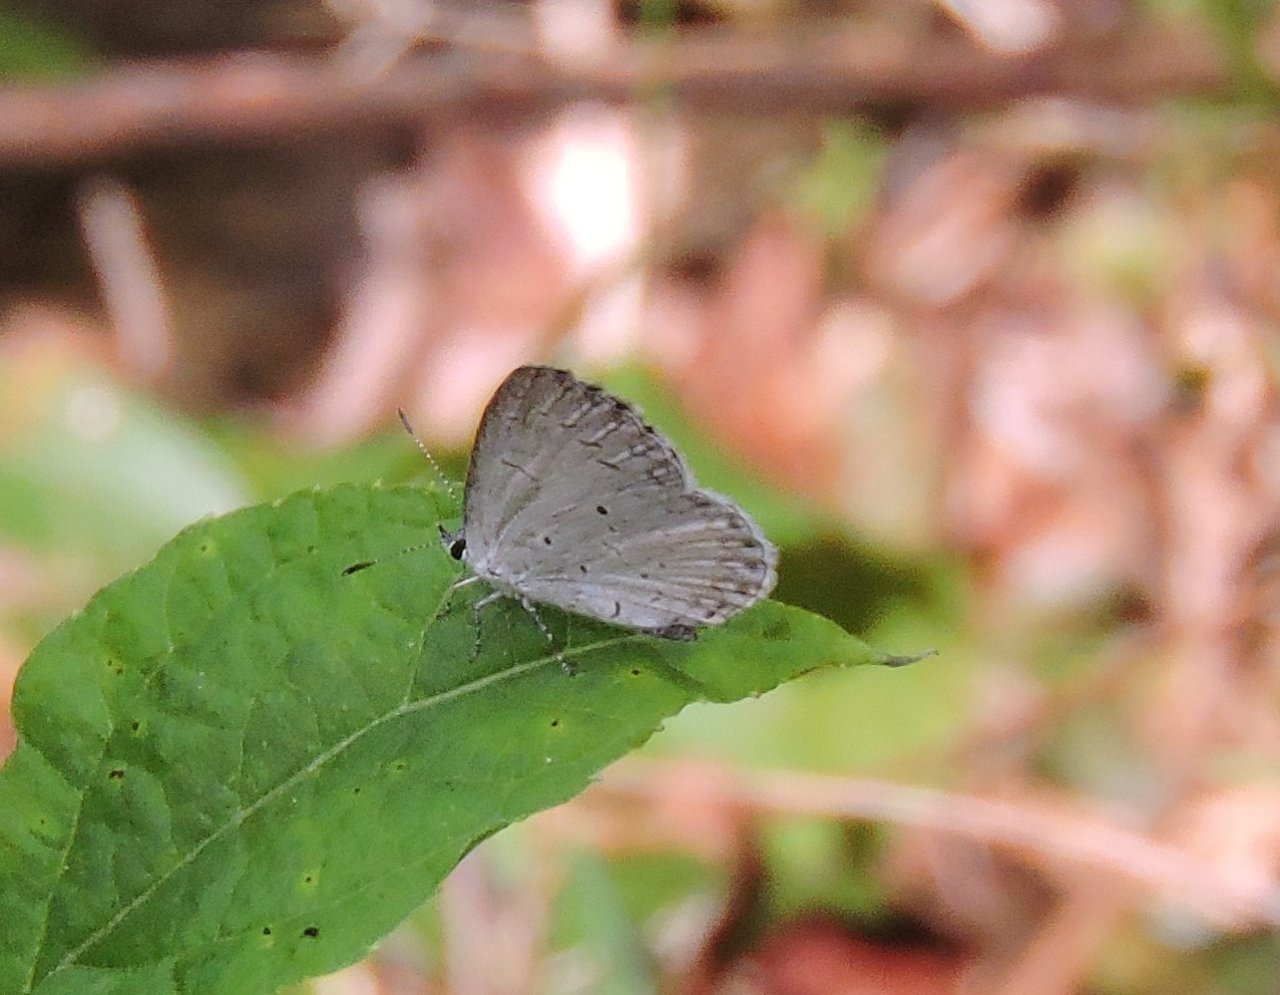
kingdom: Animalia
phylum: Arthropoda
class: Insecta
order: Lepidoptera
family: Lycaenidae
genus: Cyaniris
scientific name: Cyaniris neglecta
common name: Summer Azure
